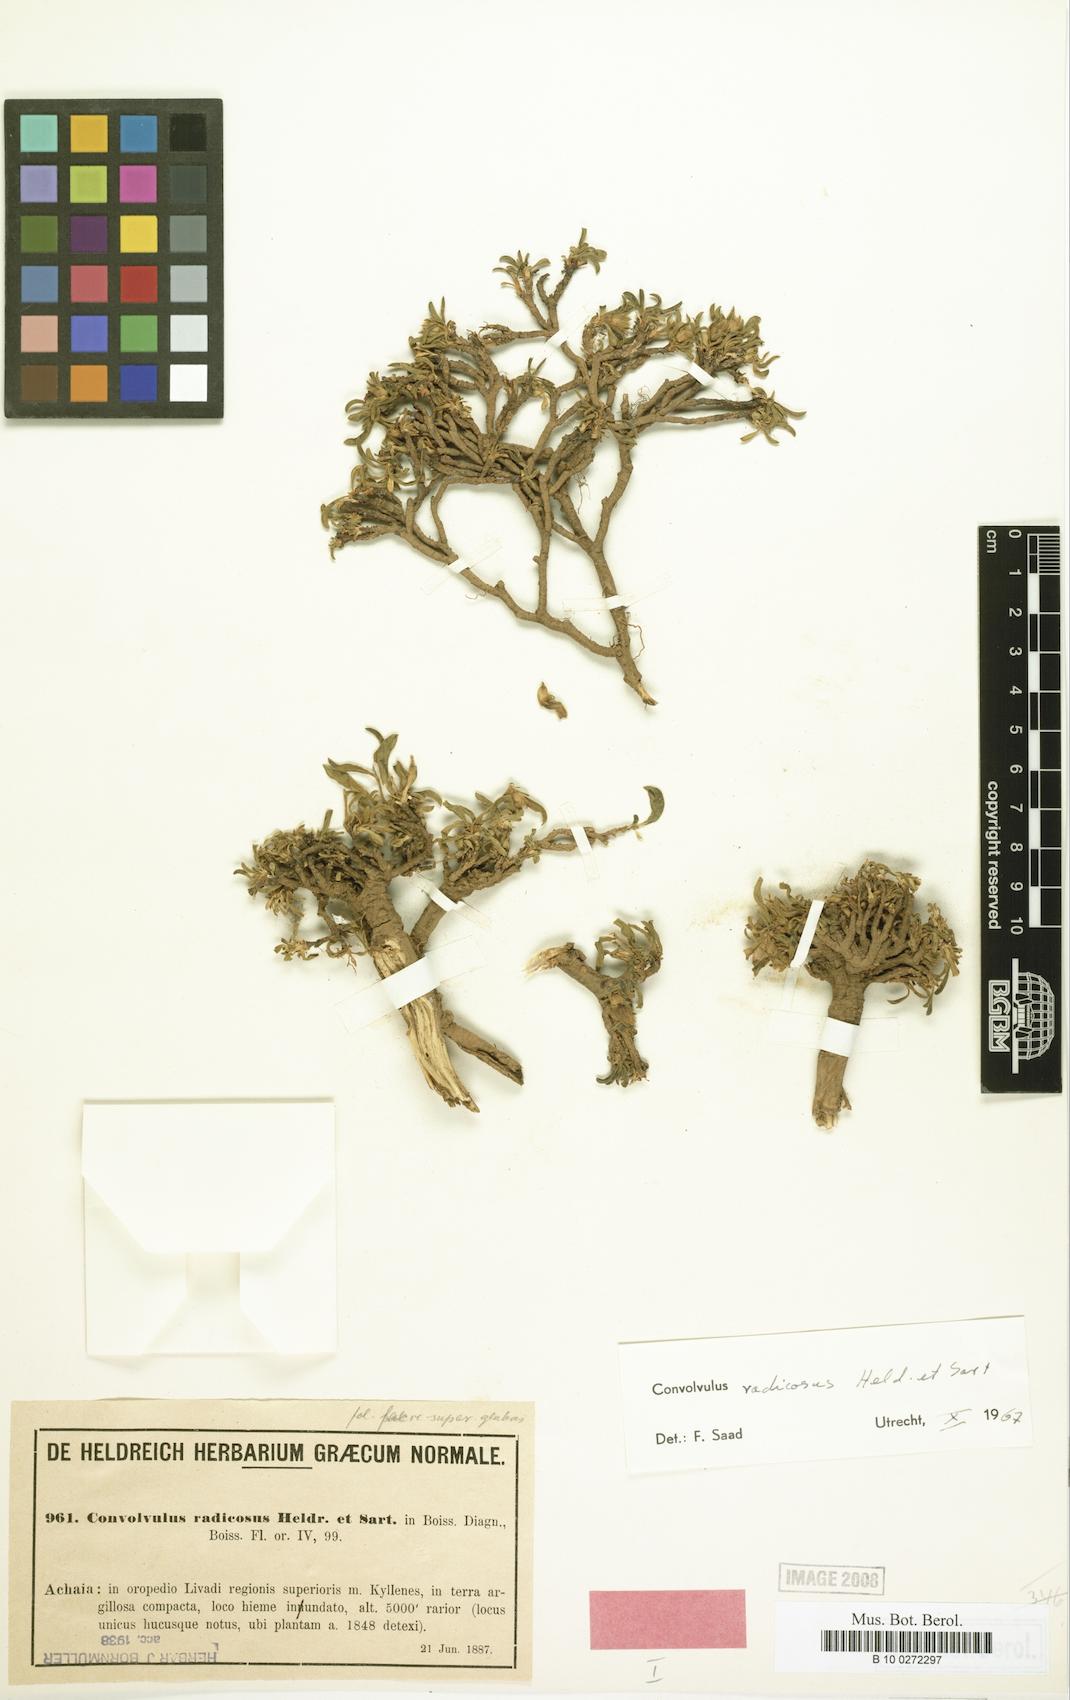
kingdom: Plantae
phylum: Tracheophyta
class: Magnoliopsida
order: Solanales
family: Convolvulaceae
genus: Convolvulus
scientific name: Convolvulus libanoticus
